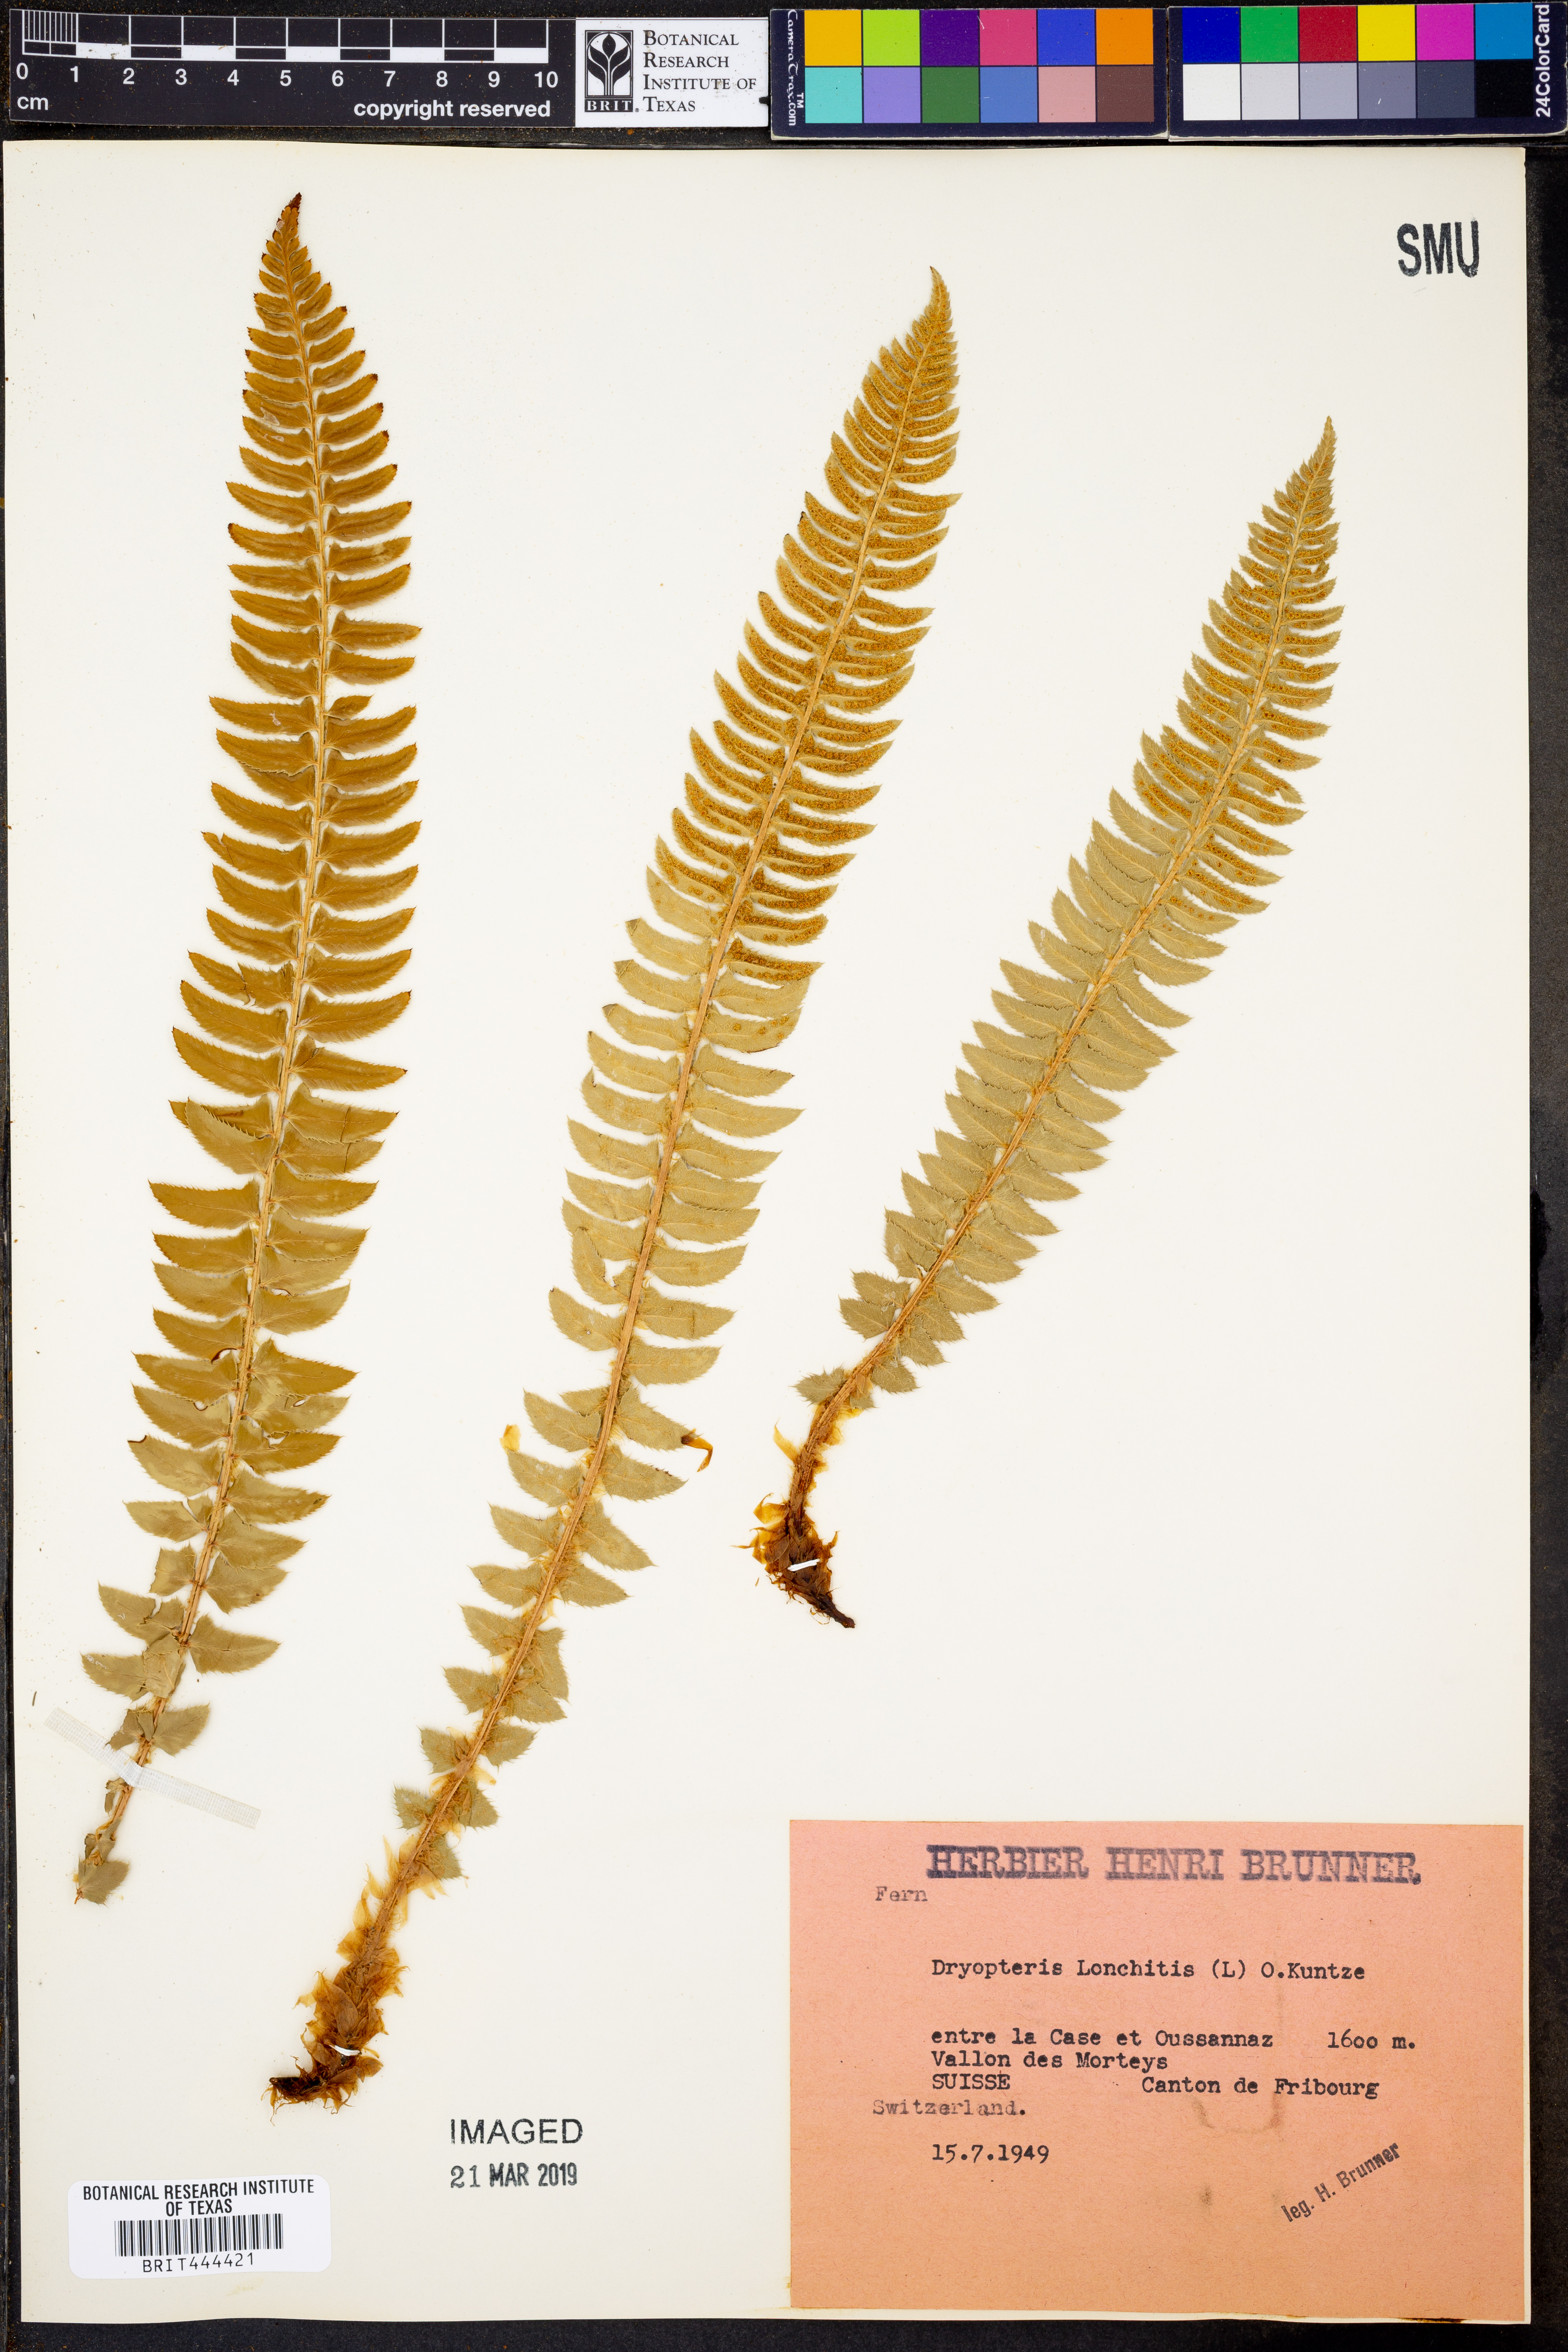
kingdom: Plantae
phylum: Tracheophyta
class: Polypodiopsida
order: Polypodiales
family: Dryopteridaceae
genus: Polystichum
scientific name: Polystichum lonchitis
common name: Holly fern
